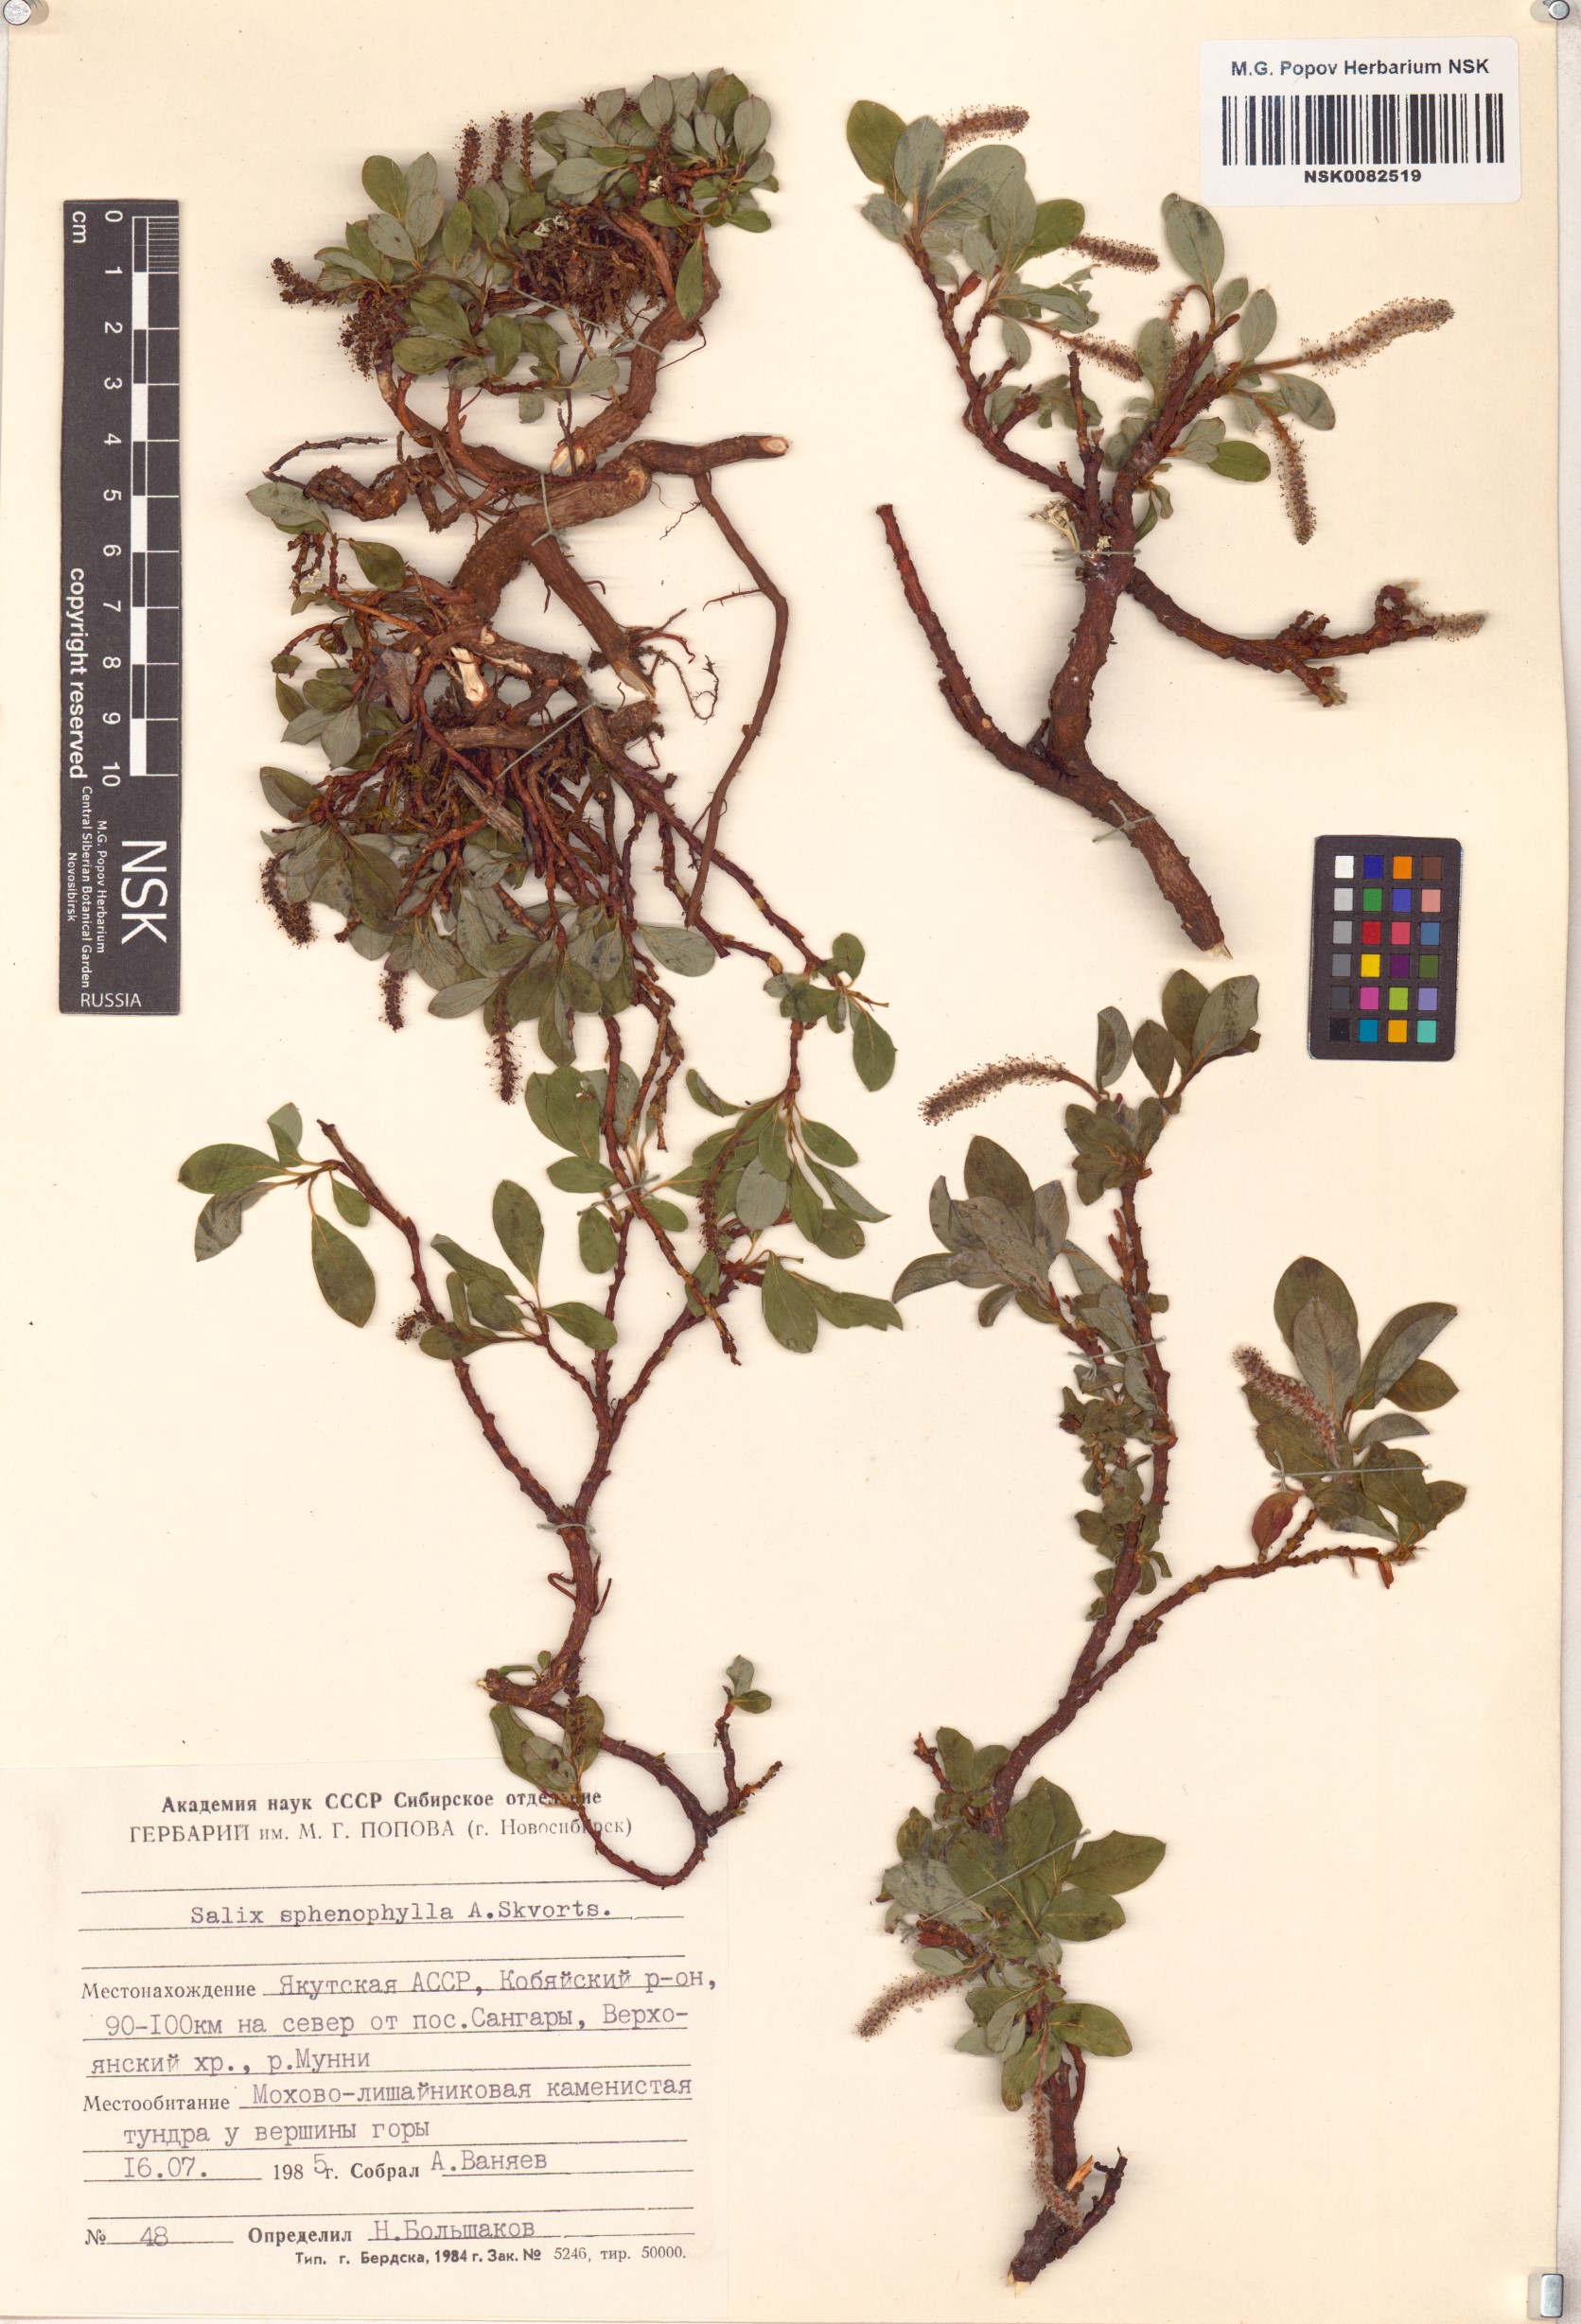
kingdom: Plantae
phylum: Tracheophyta
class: Magnoliopsida
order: Malpighiales
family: Salicaceae
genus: Salix
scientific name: Salix sphenophylla
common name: Wedge-leaved willow
